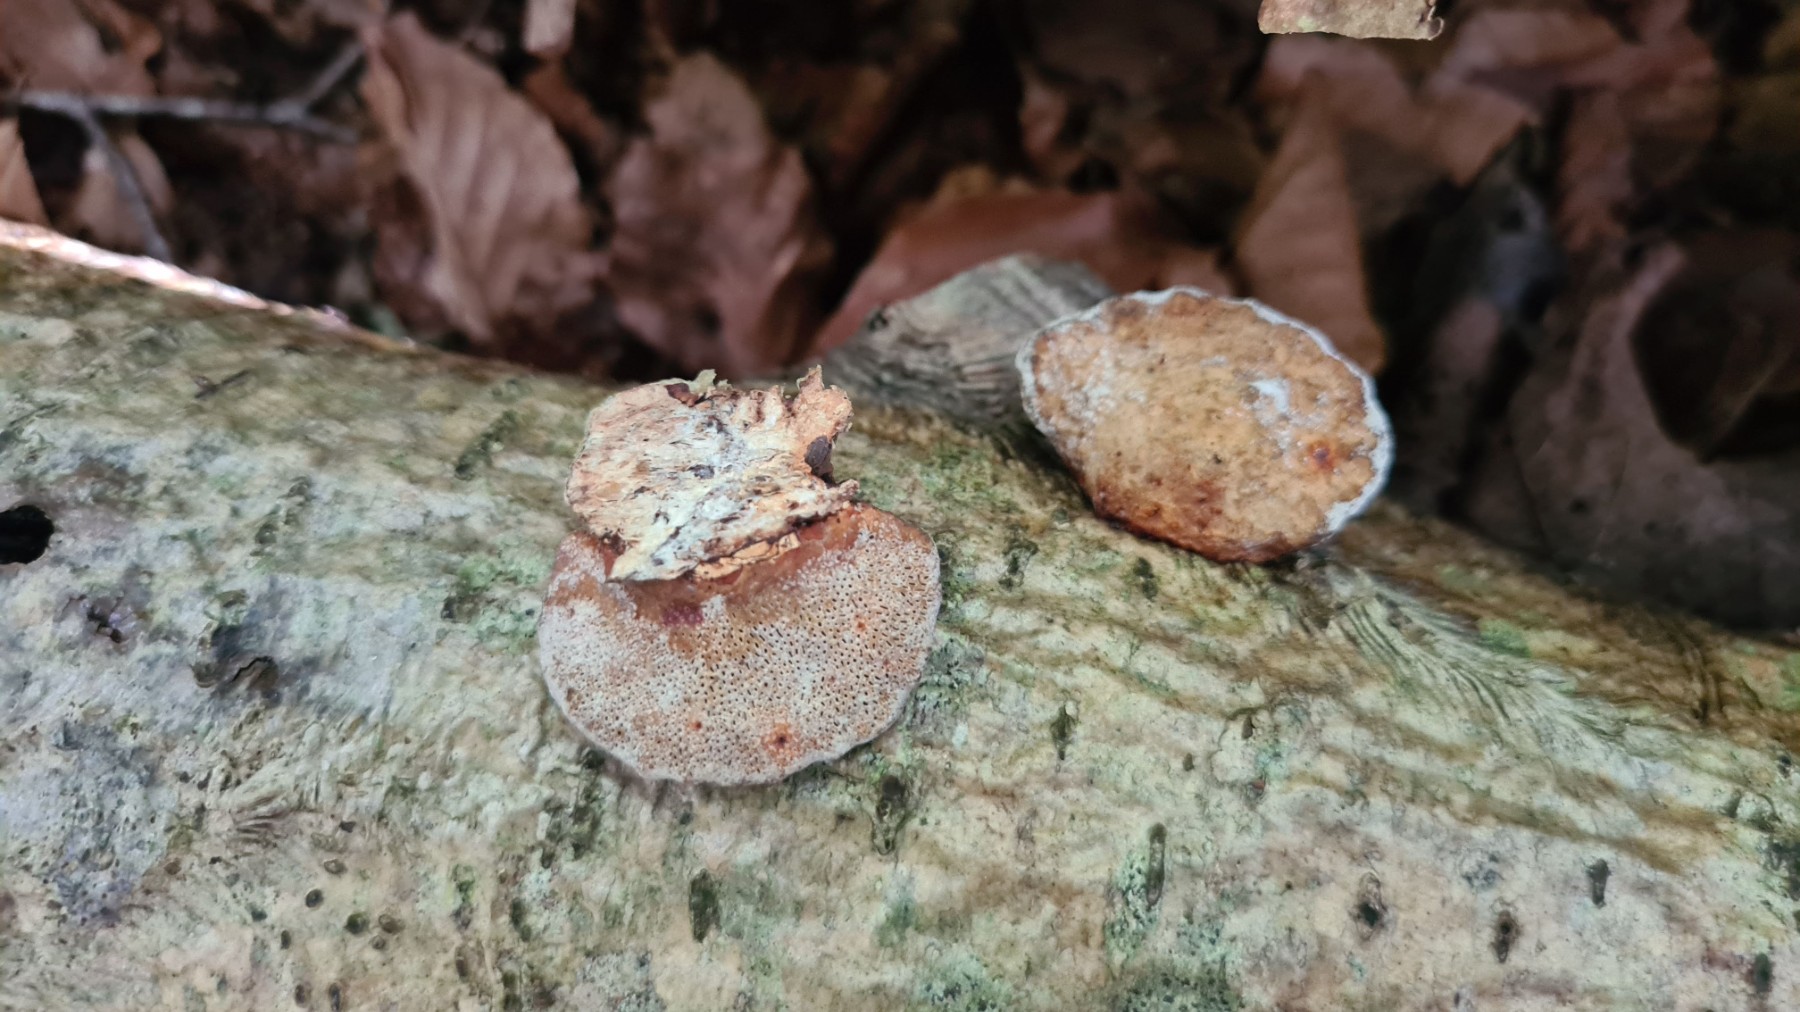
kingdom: Fungi
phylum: Basidiomycota
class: Agaricomycetes
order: Polyporales
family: Polyporaceae
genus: Daedaleopsis
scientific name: Daedaleopsis confragosa
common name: rødmende læderporesvamp
